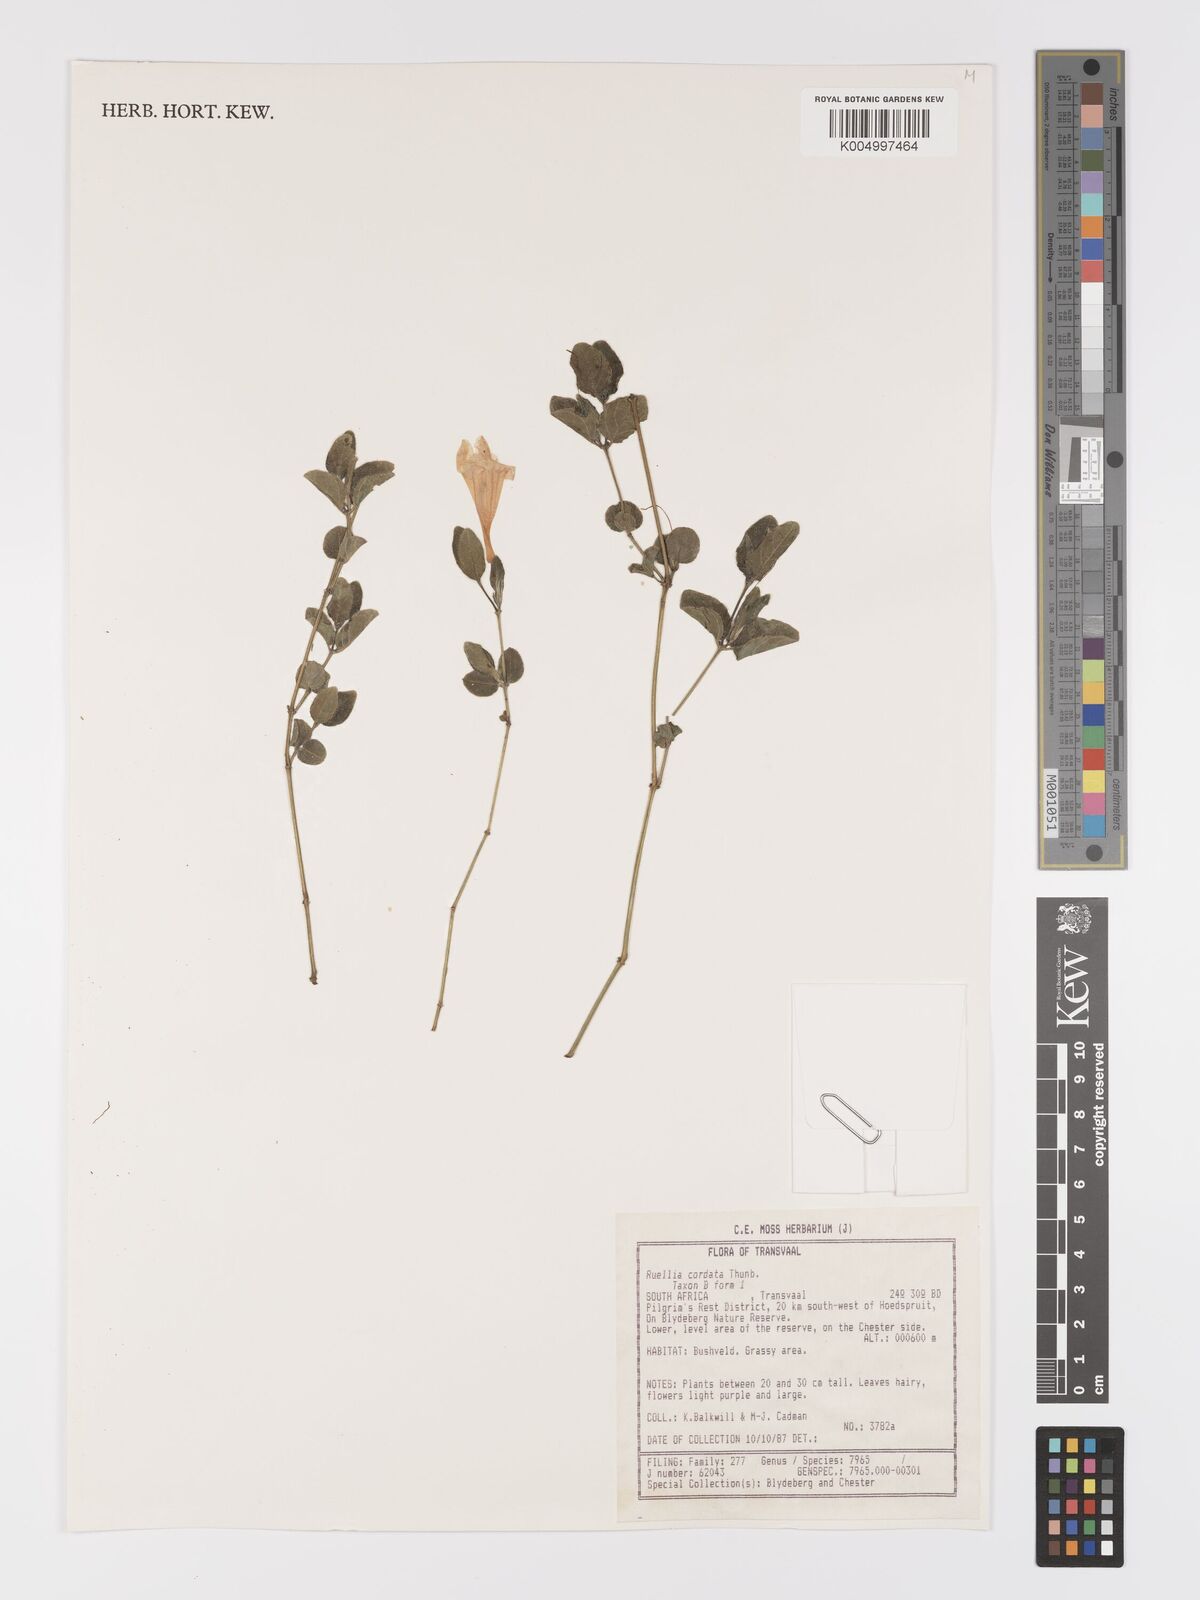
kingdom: Plantae
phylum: Tracheophyta
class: Magnoliopsida
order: Lamiales
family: Acanthaceae
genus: Ruellia
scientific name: Ruellia cordata
